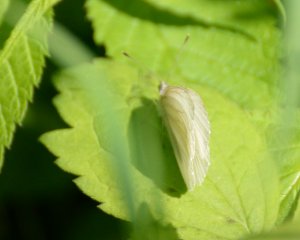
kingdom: Animalia
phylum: Arthropoda
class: Insecta
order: Lepidoptera
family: Pieridae
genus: Pieris
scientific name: Pieris oleracea
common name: Mustard White
